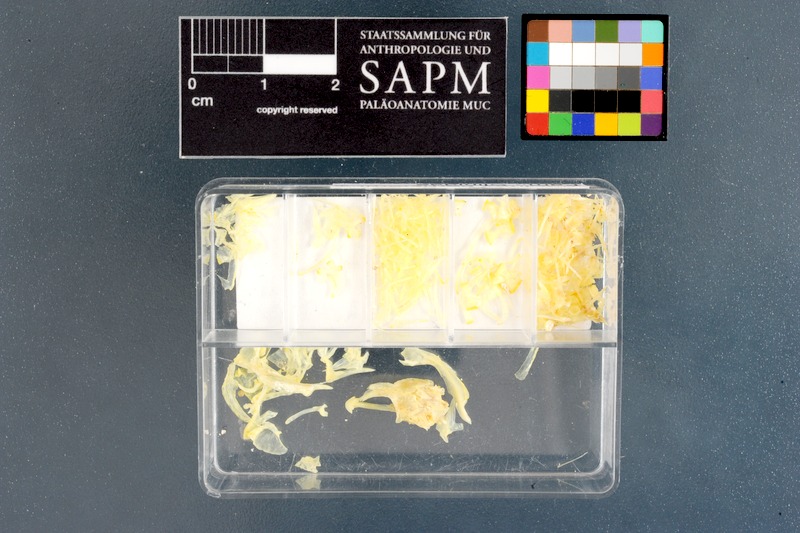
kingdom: Animalia
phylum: Chordata
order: Perciformes
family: Clinidae
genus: Clinus
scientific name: Clinus berrisfordi
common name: Onrust klipfish
